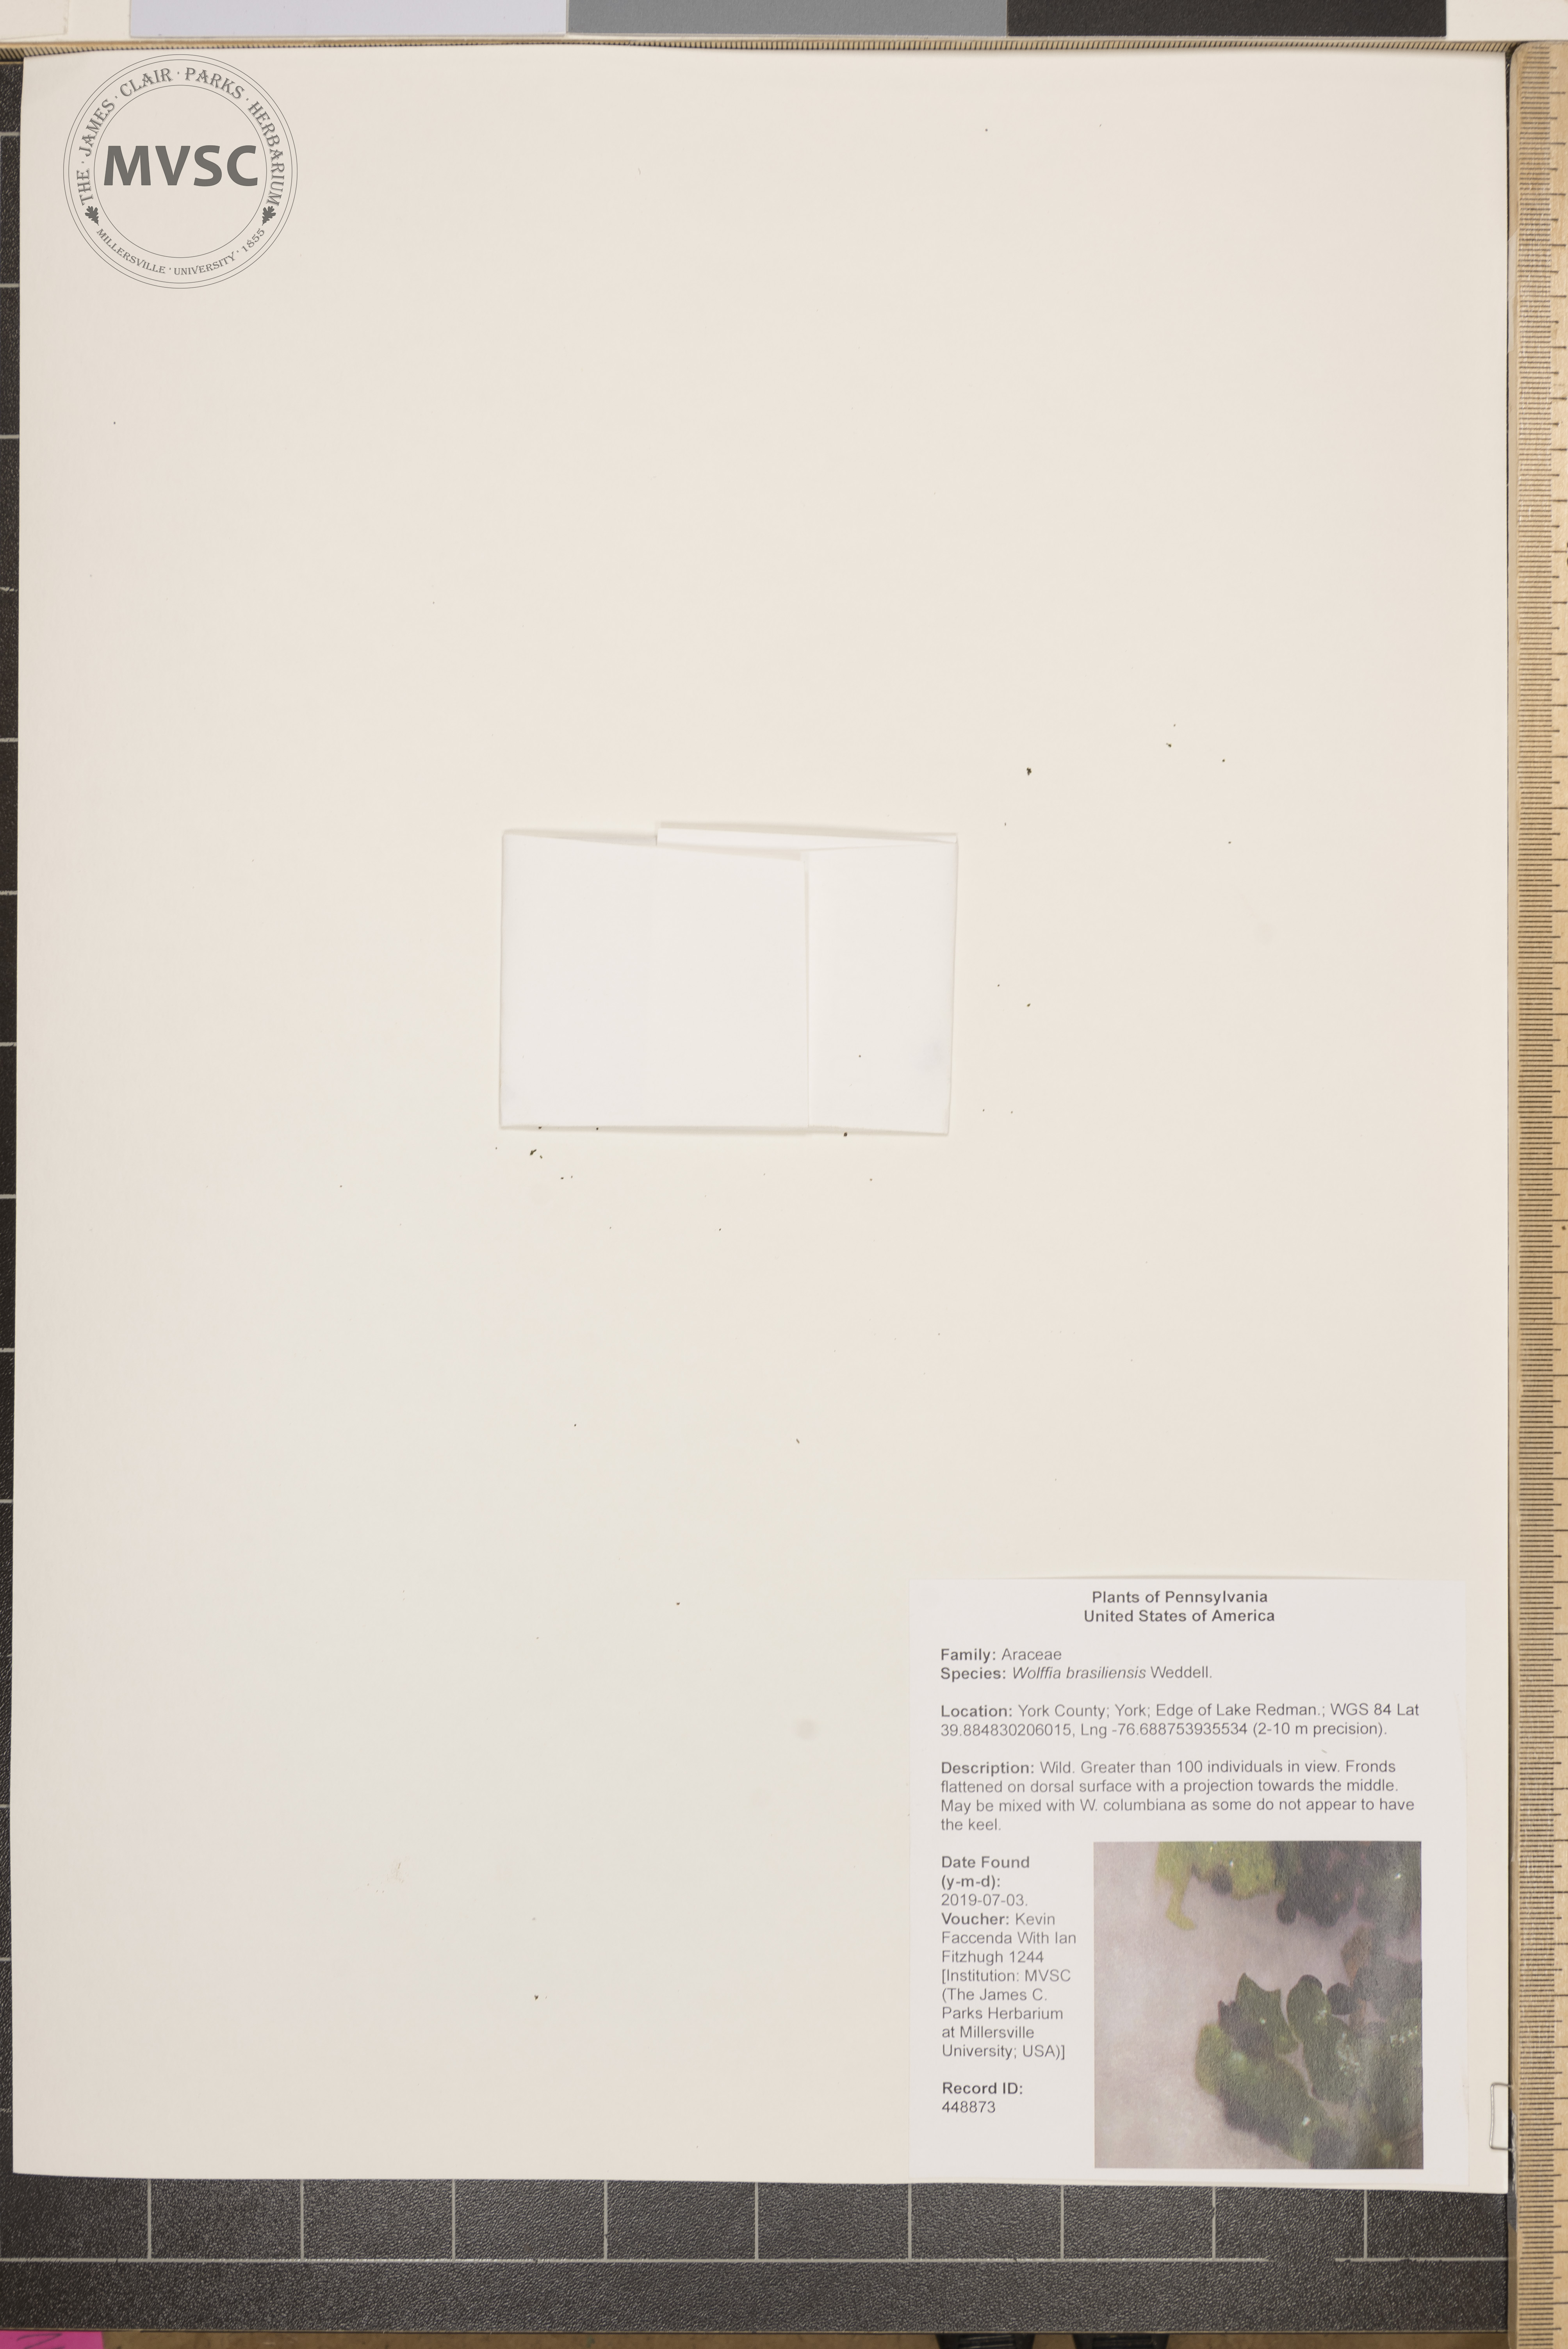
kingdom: Plantae
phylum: Tracheophyta
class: Liliopsida
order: Alismatales
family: Araceae
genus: Wolffia
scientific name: Wolffia brasiliensis
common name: Brazilian watermeal
